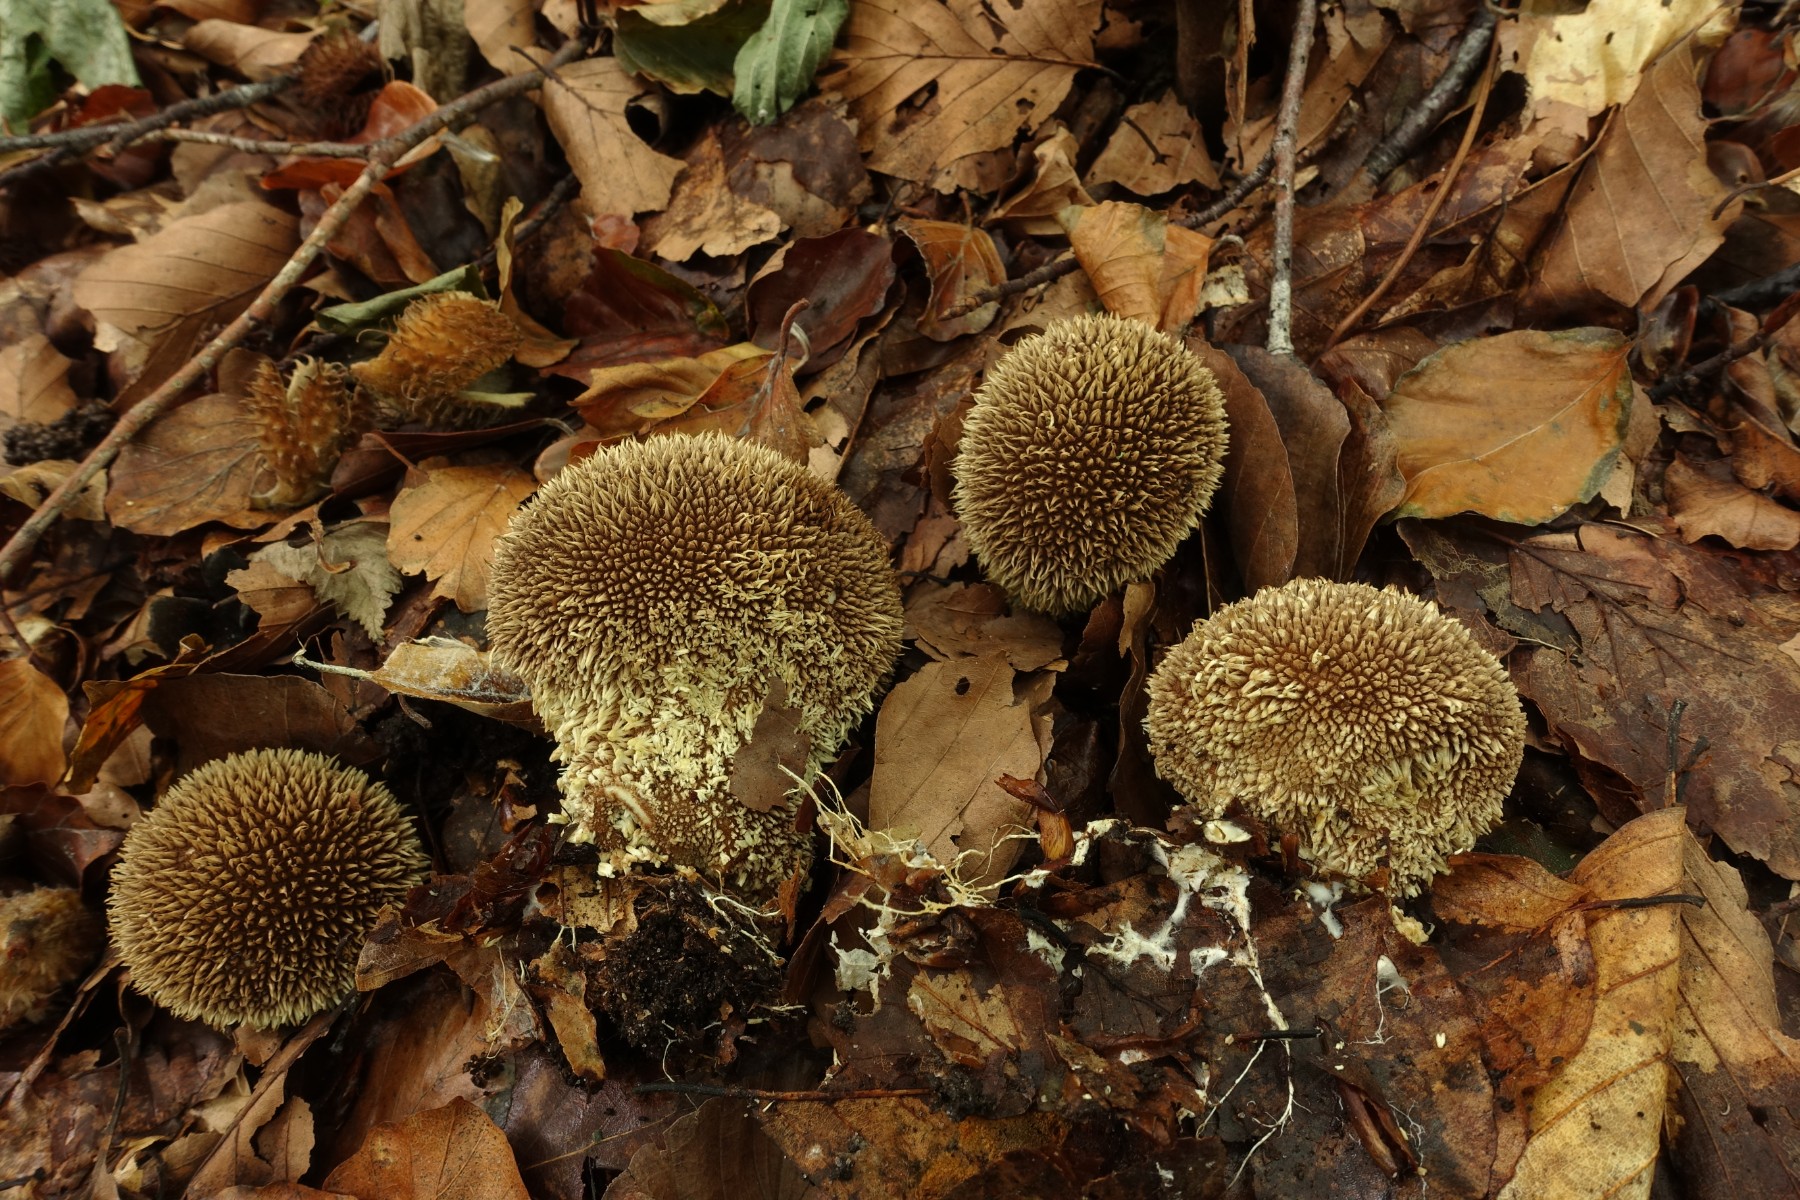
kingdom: Fungi
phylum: Basidiomycota
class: Agaricomycetes
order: Agaricales
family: Lycoperdaceae
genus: Lycoperdon
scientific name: Lycoperdon echinatum
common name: pindsvine-støvbold
